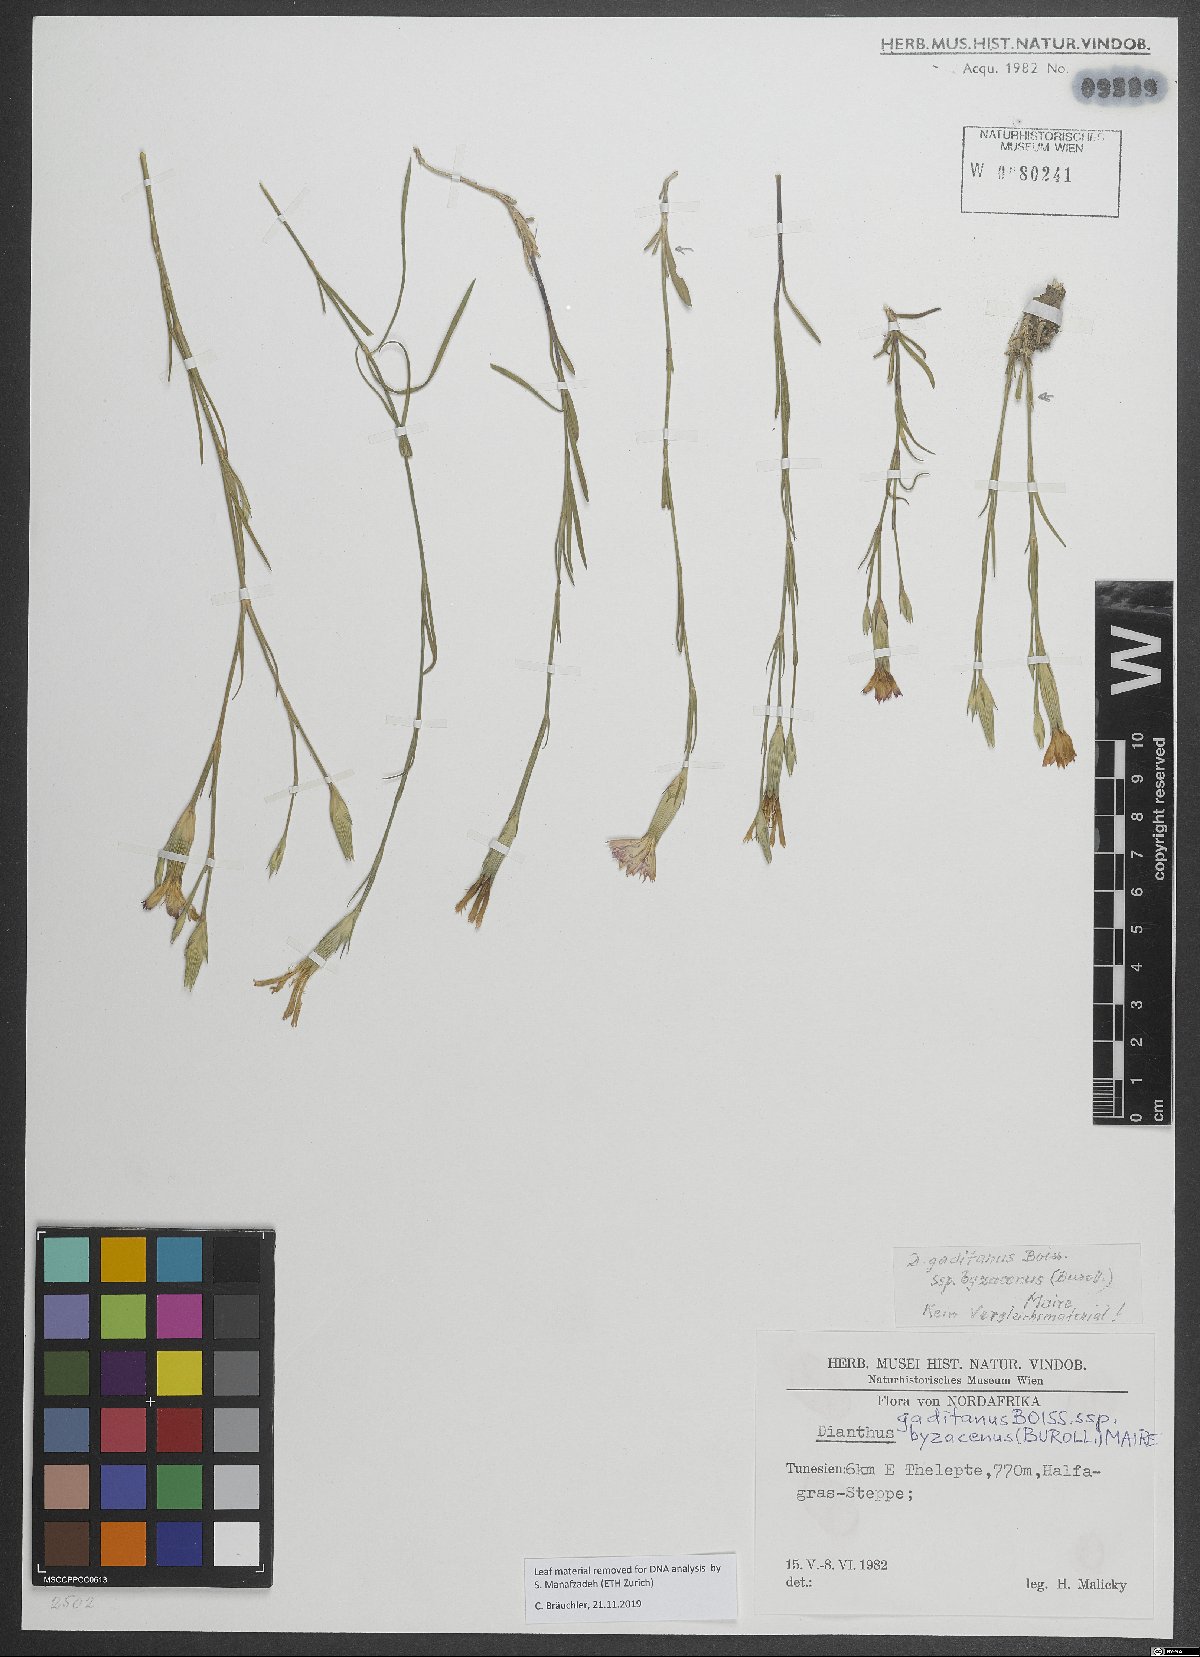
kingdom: Plantae
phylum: Tracheophyta
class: Magnoliopsida
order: Caryophyllales
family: Caryophyllaceae
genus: Dianthus
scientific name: Dianthus cintranus
